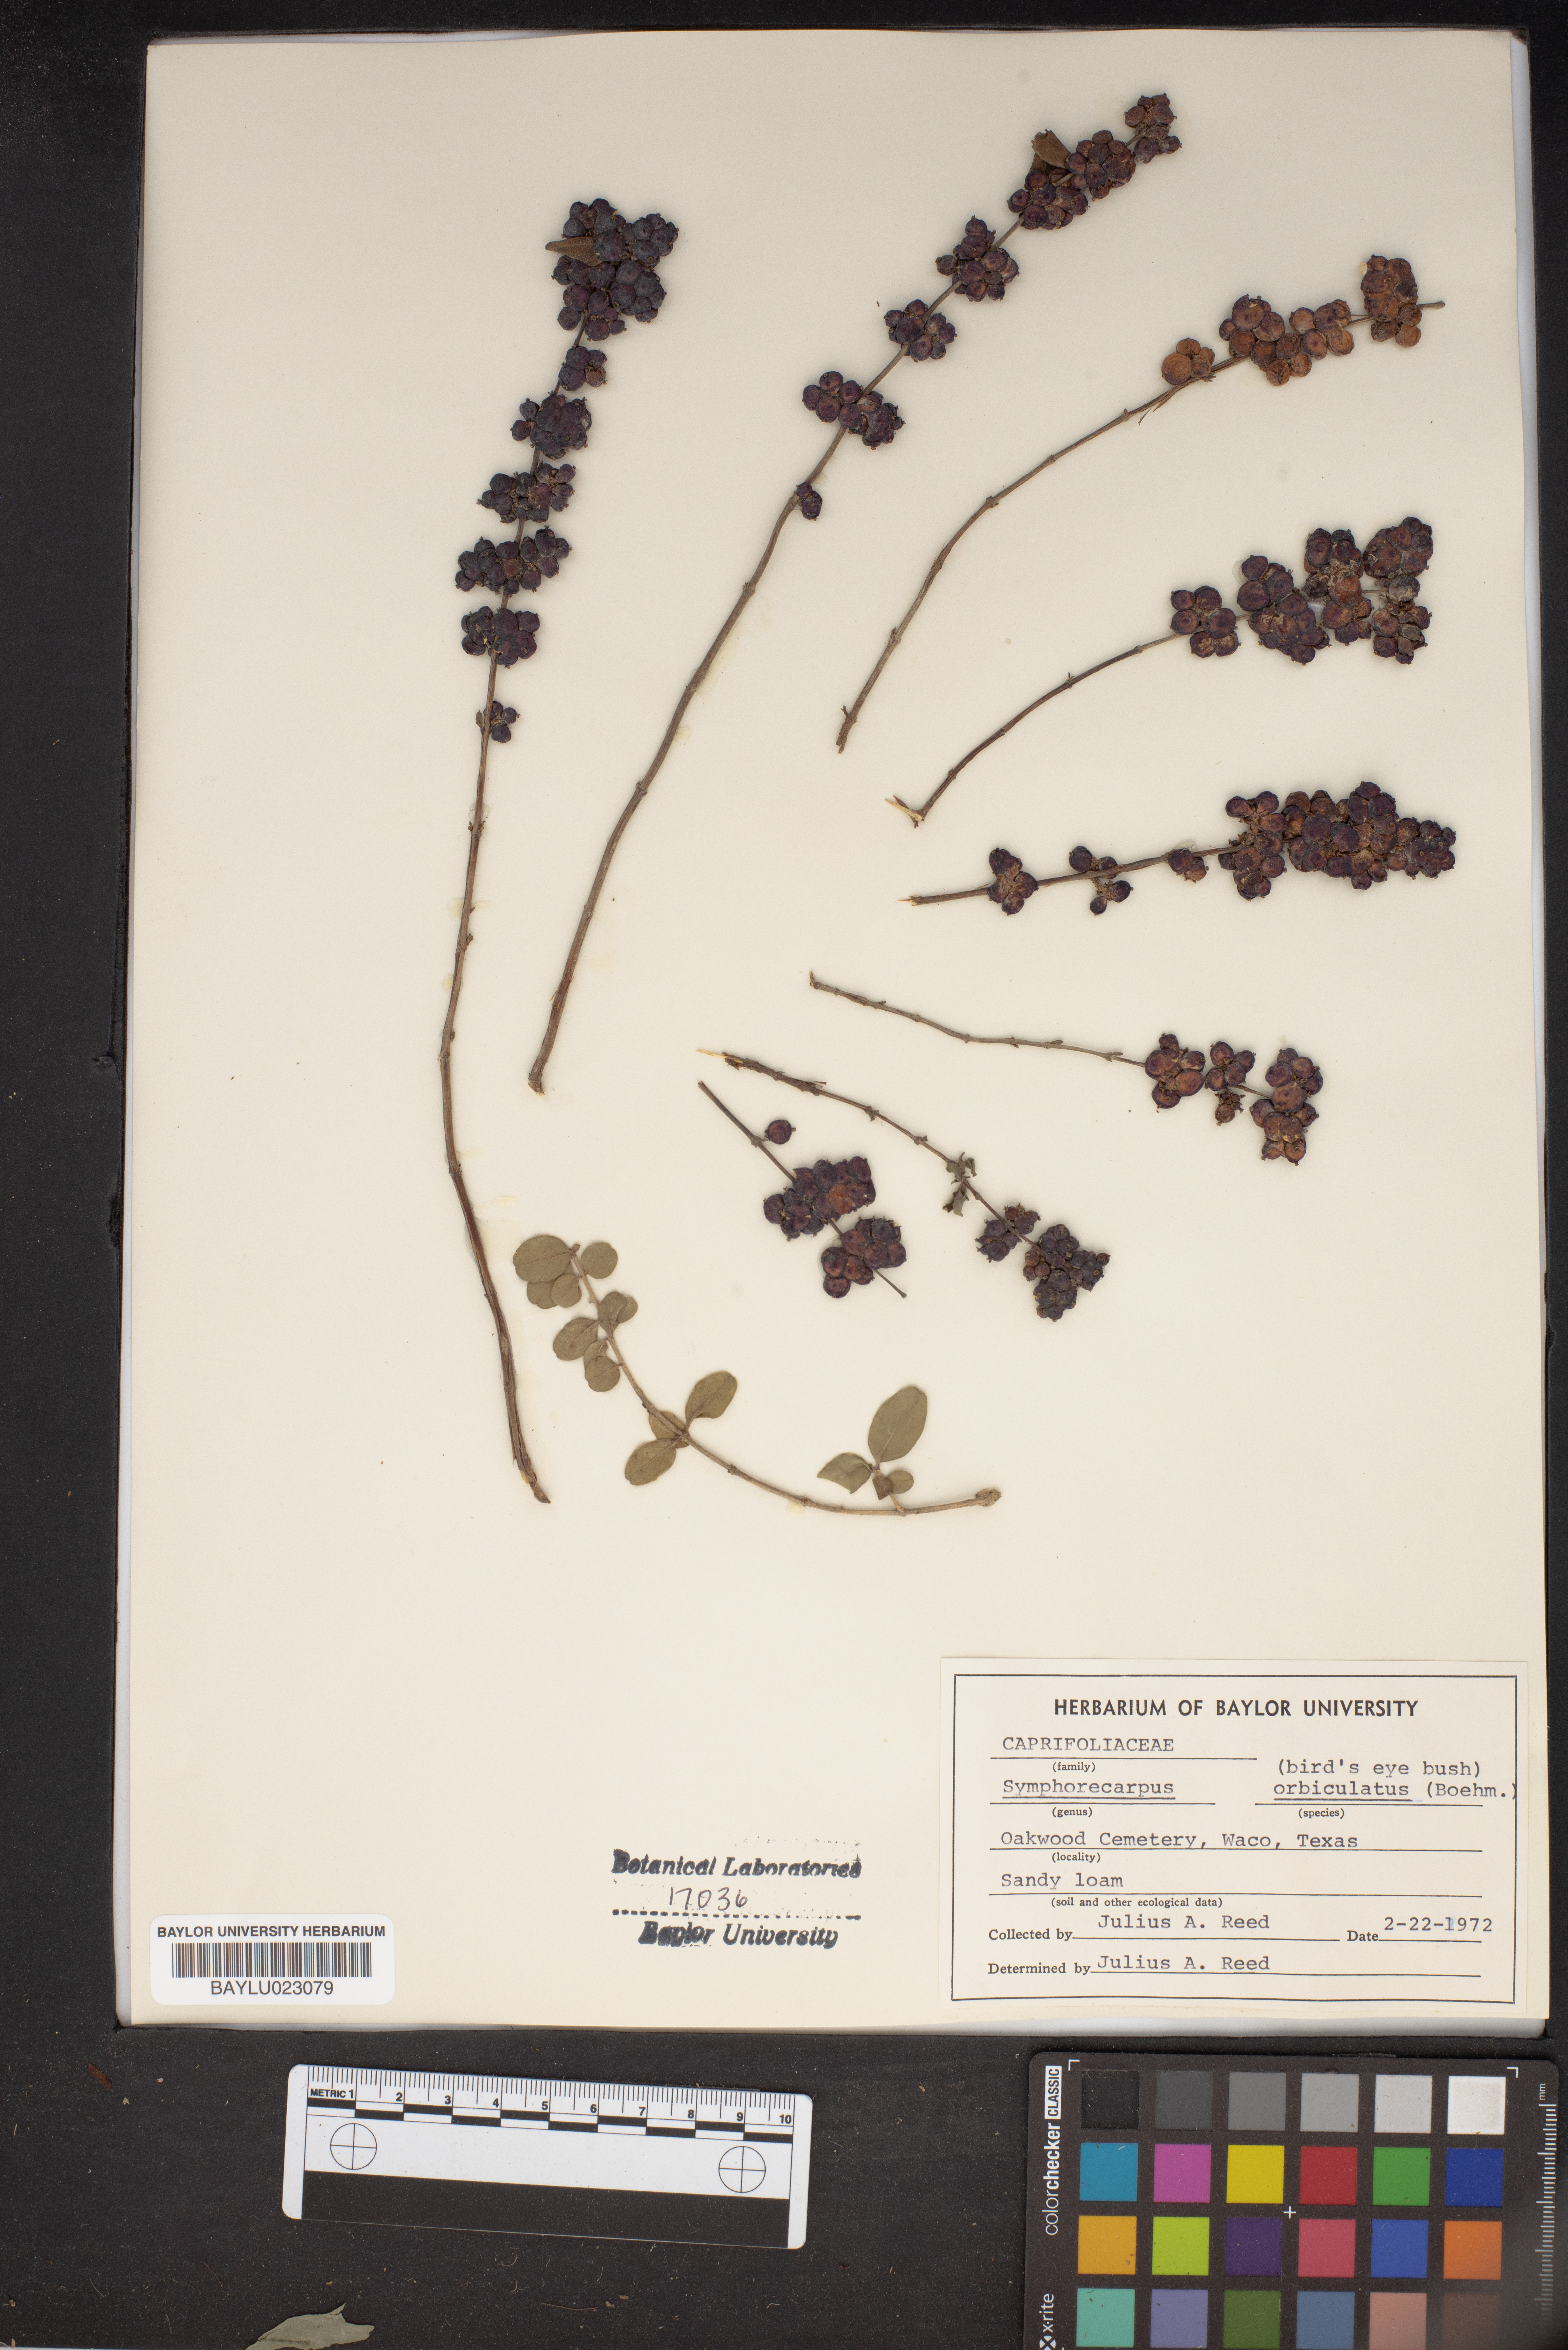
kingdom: Plantae
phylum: Tracheophyta
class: Magnoliopsida
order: Dipsacales
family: Caprifoliaceae
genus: Symphoricarpos
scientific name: Symphoricarpos orbiculatus
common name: Coralberry
